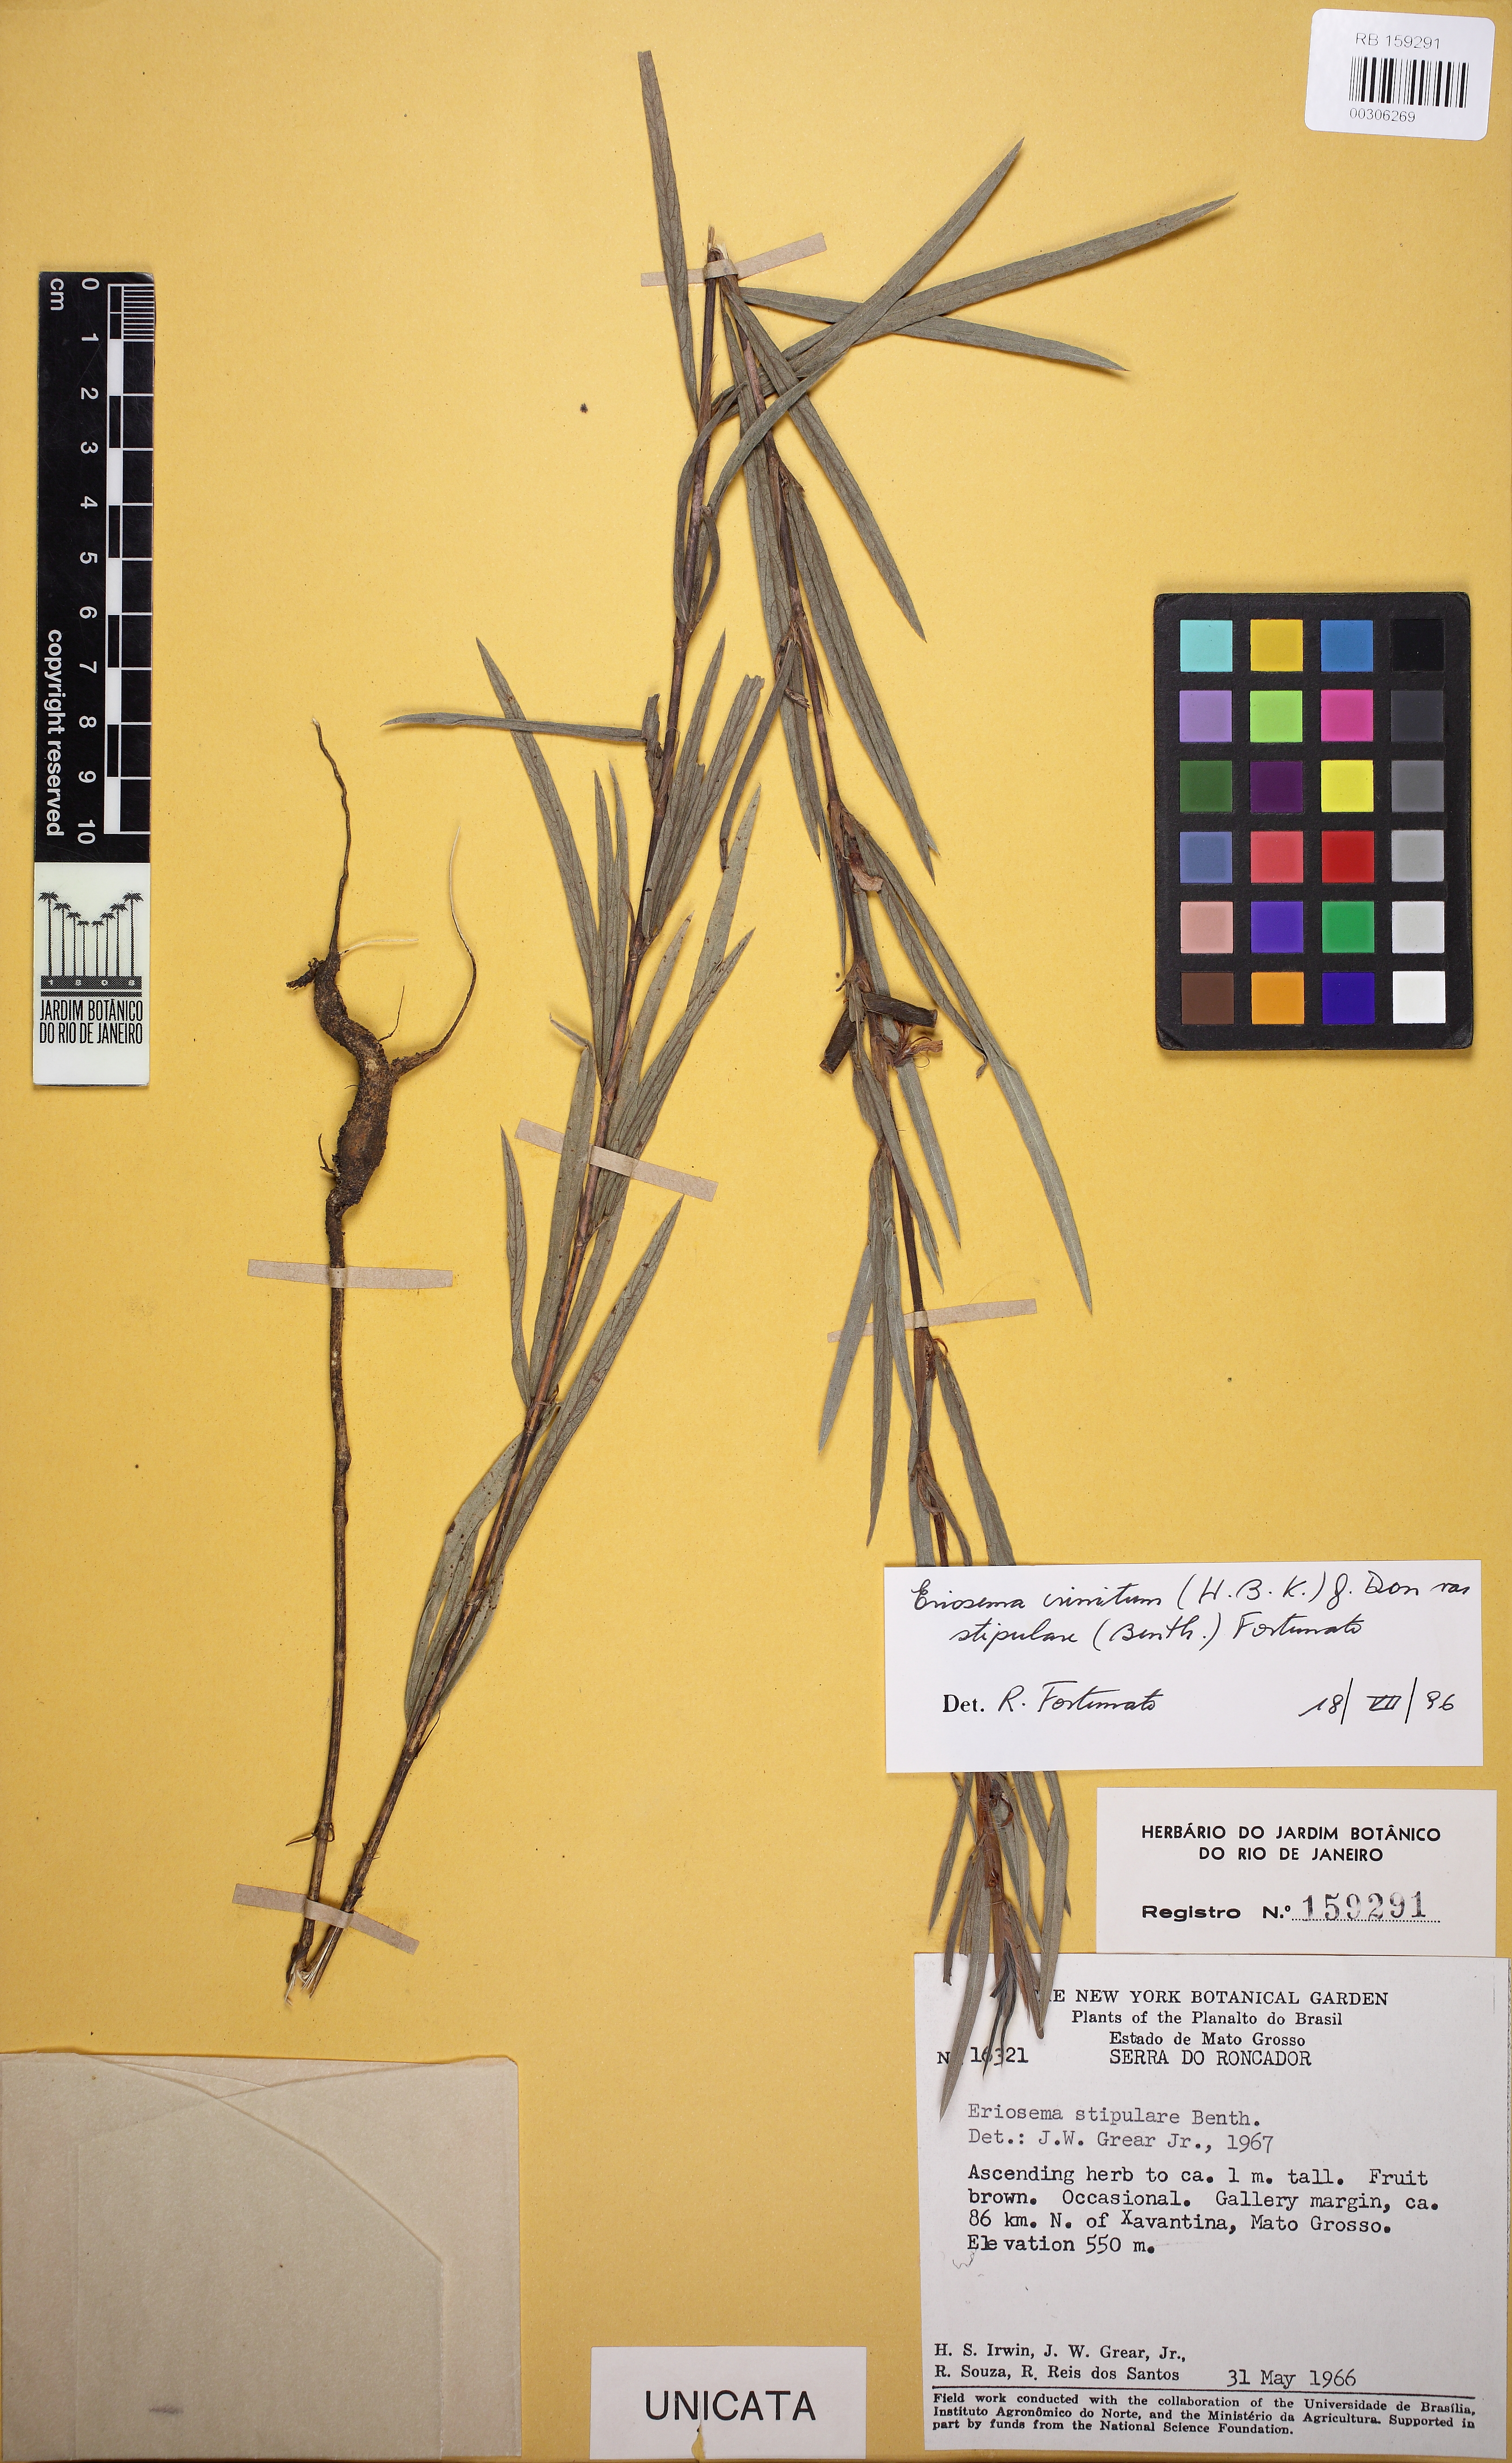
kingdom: Plantae
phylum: Tracheophyta
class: Magnoliopsida
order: Fabales
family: Fabaceae
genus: Eriosema
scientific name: Eriosema crinitum
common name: Sand pea
